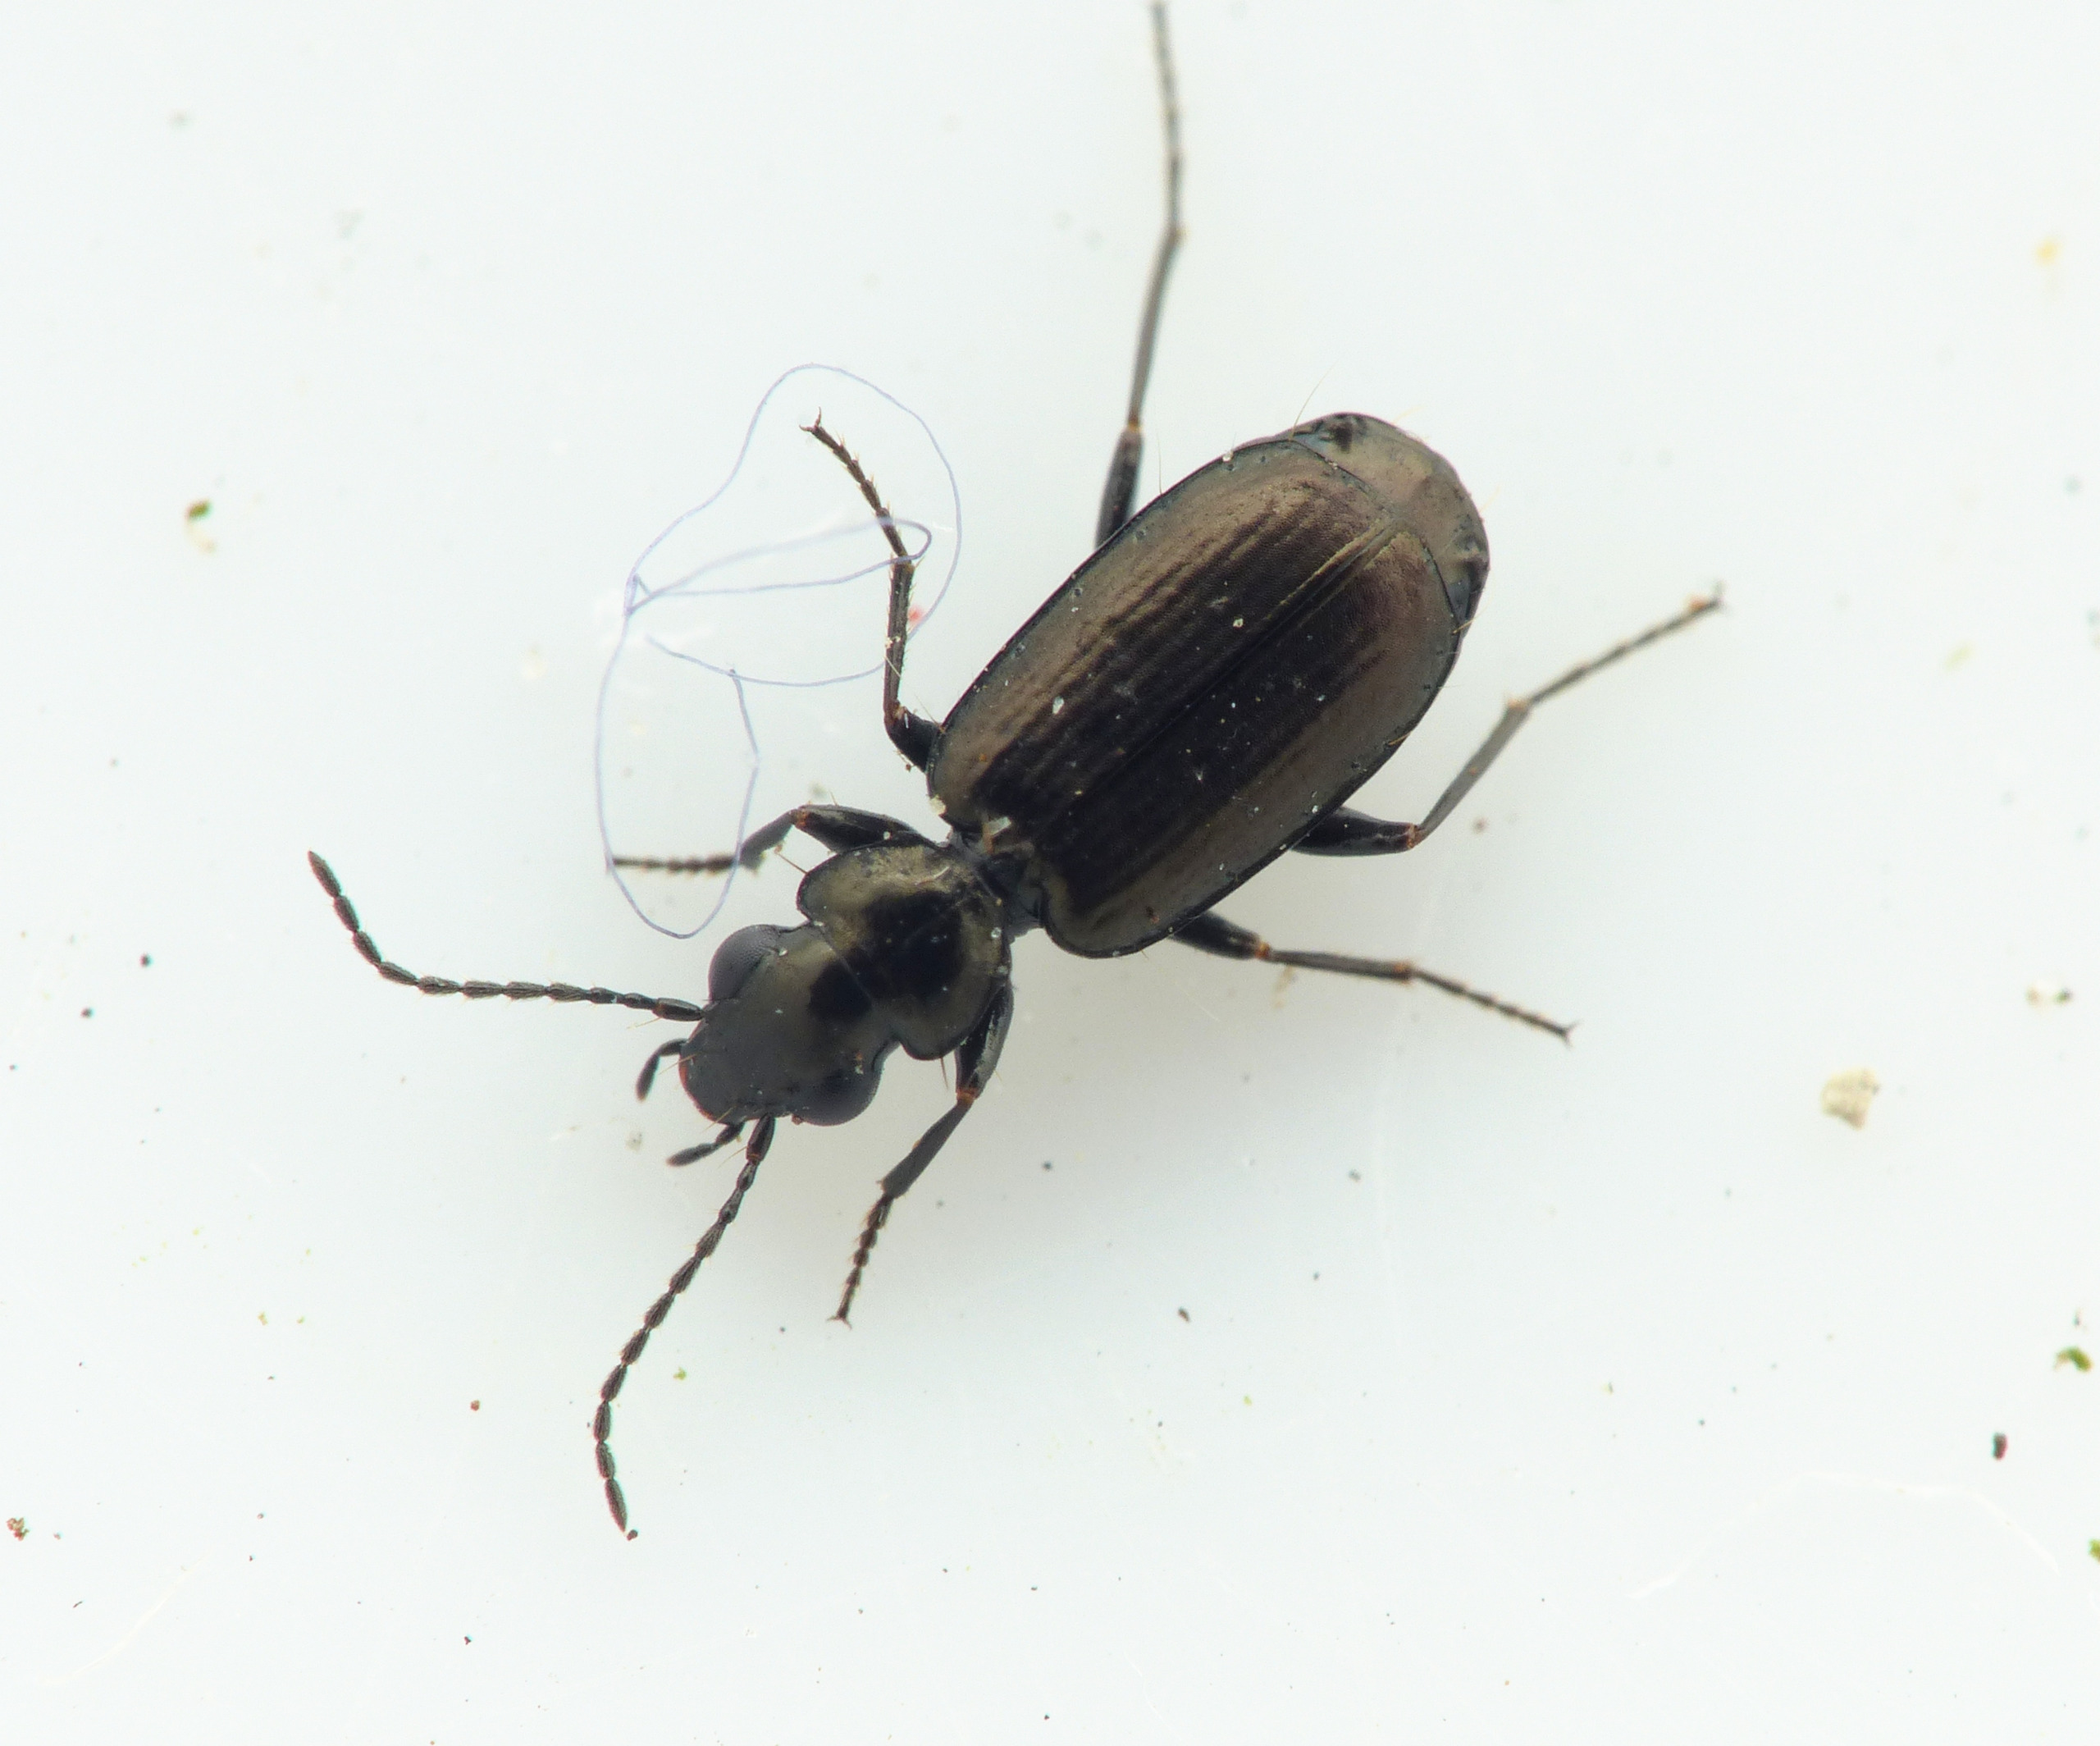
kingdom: Animalia
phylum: Arthropoda
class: Insecta
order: Coleoptera
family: Carabidae
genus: Syntomus
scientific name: Syntomus foveatus
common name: Bronzestumpløber
